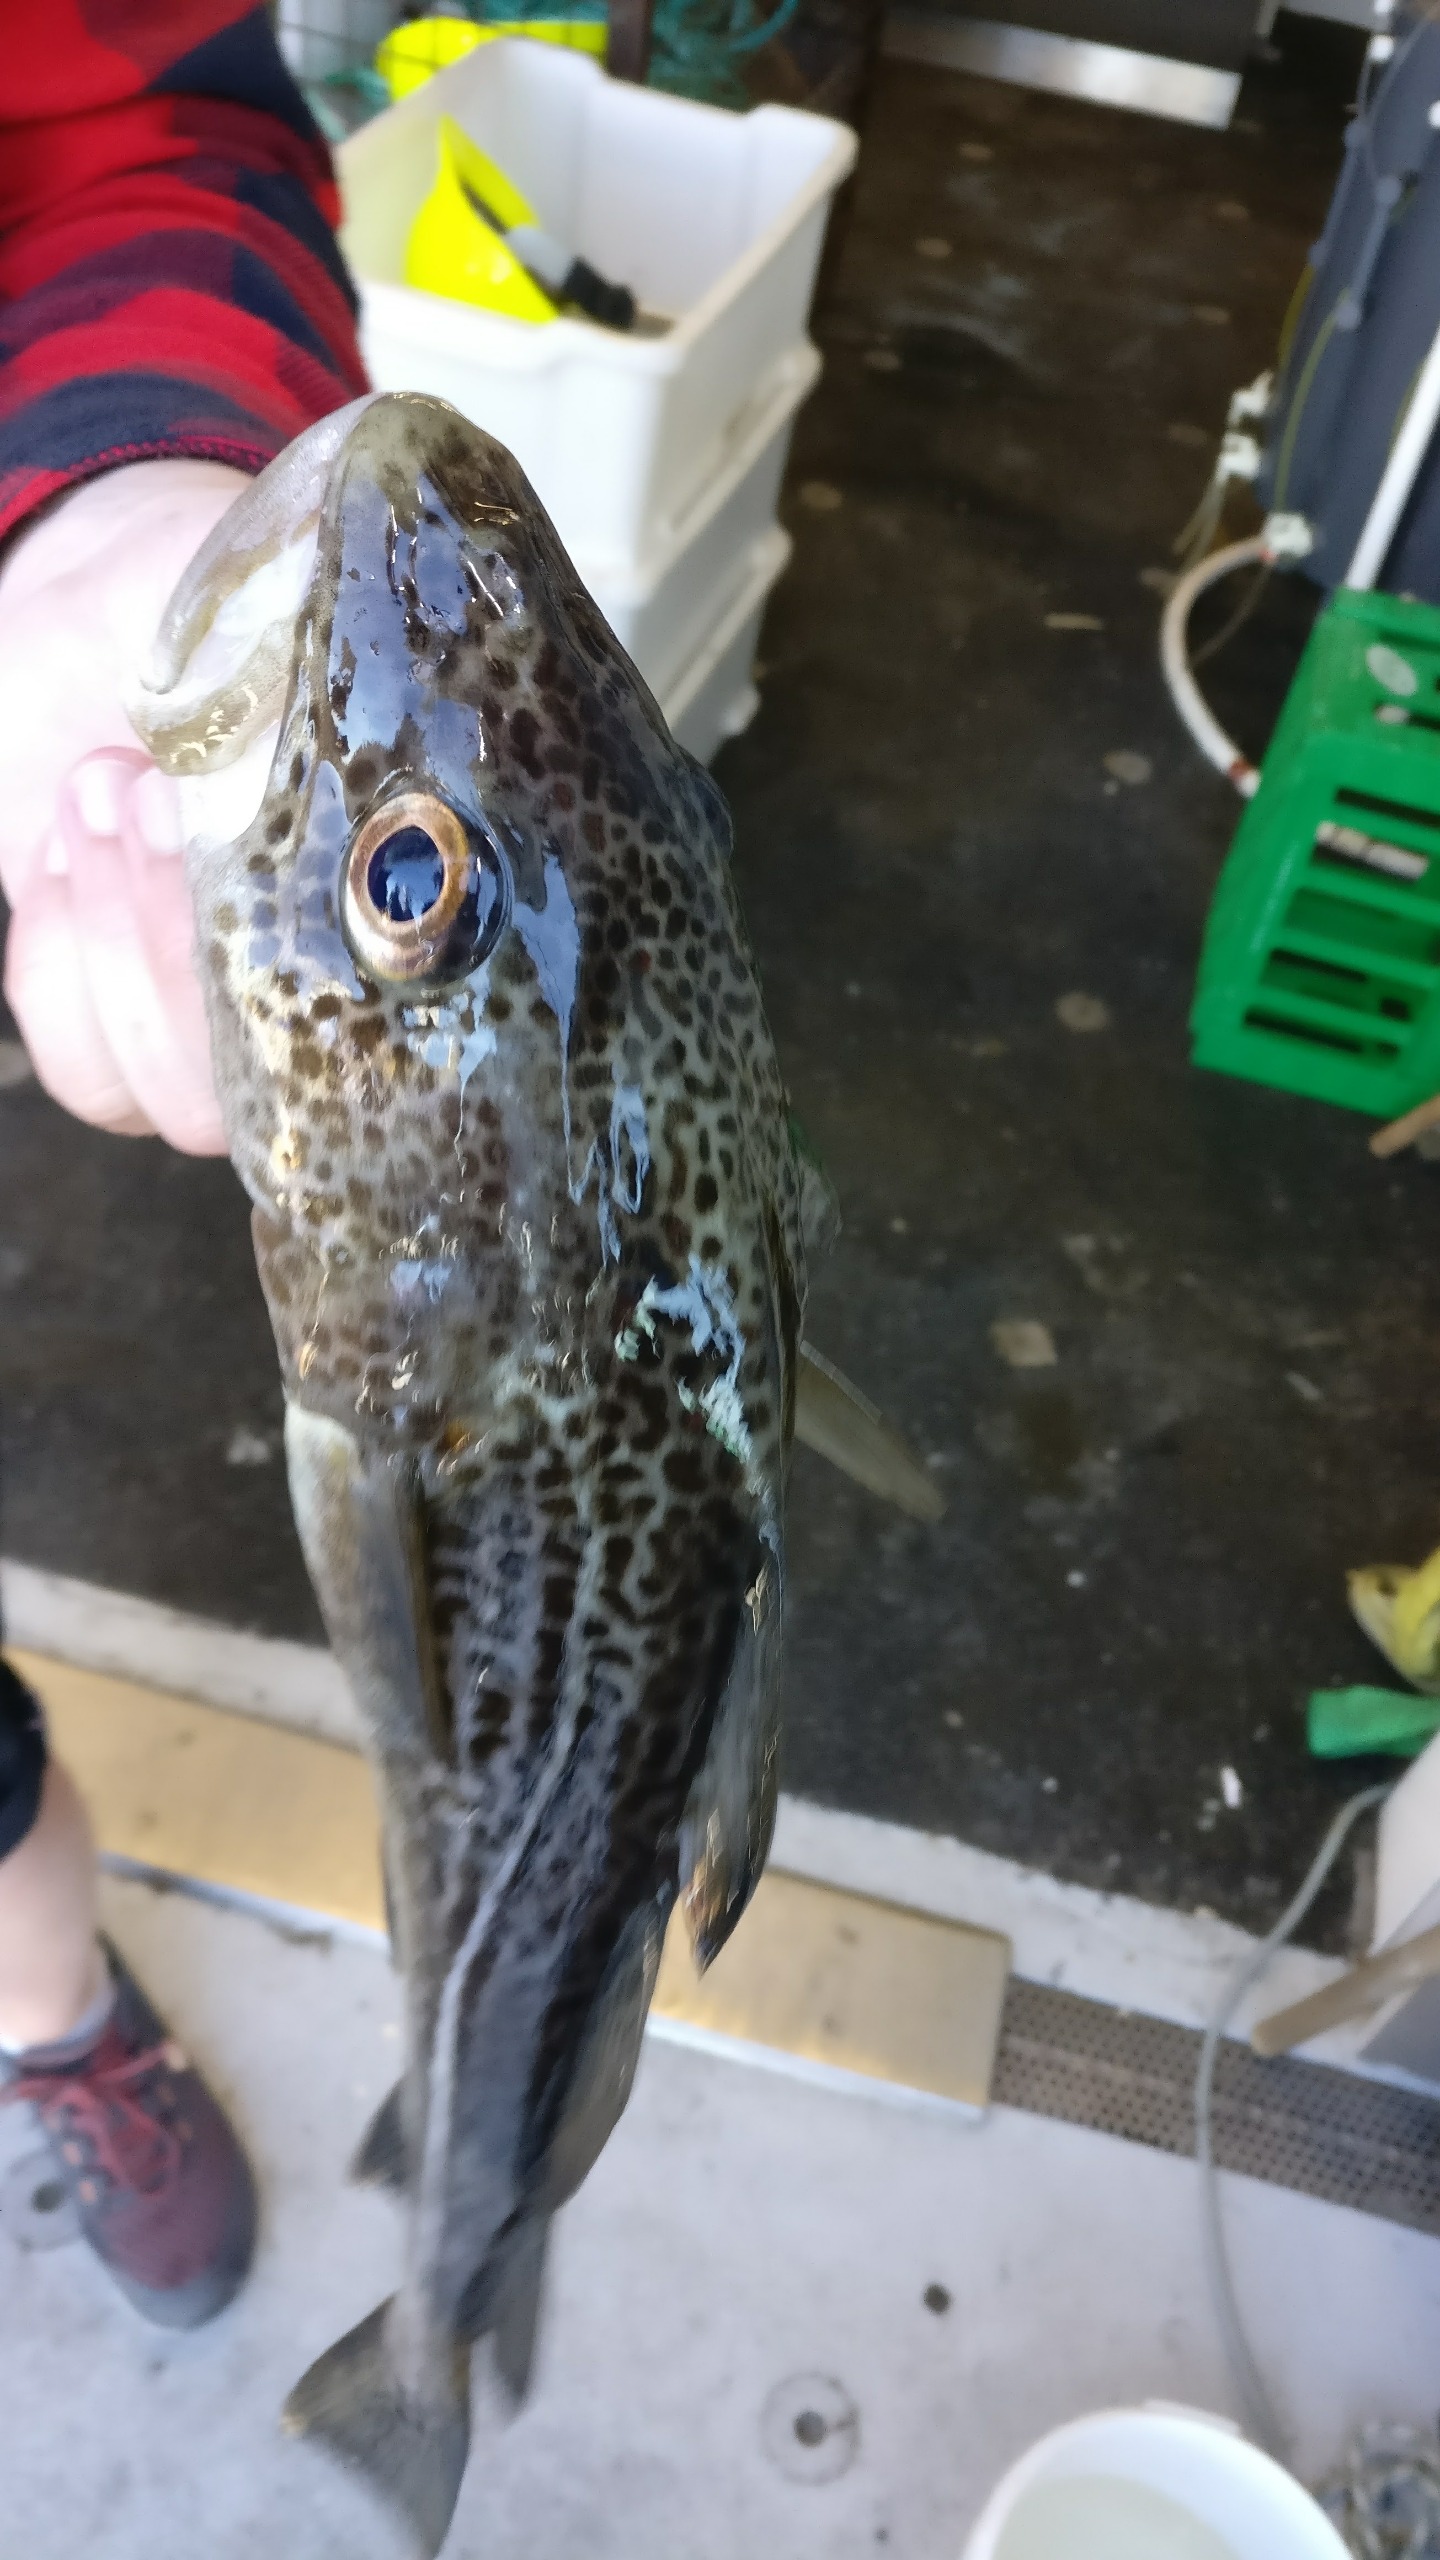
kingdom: Animalia
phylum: Chordata
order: Gadiformes
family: Gadidae
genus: Gadus
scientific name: Gadus morhua
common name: Torsk
